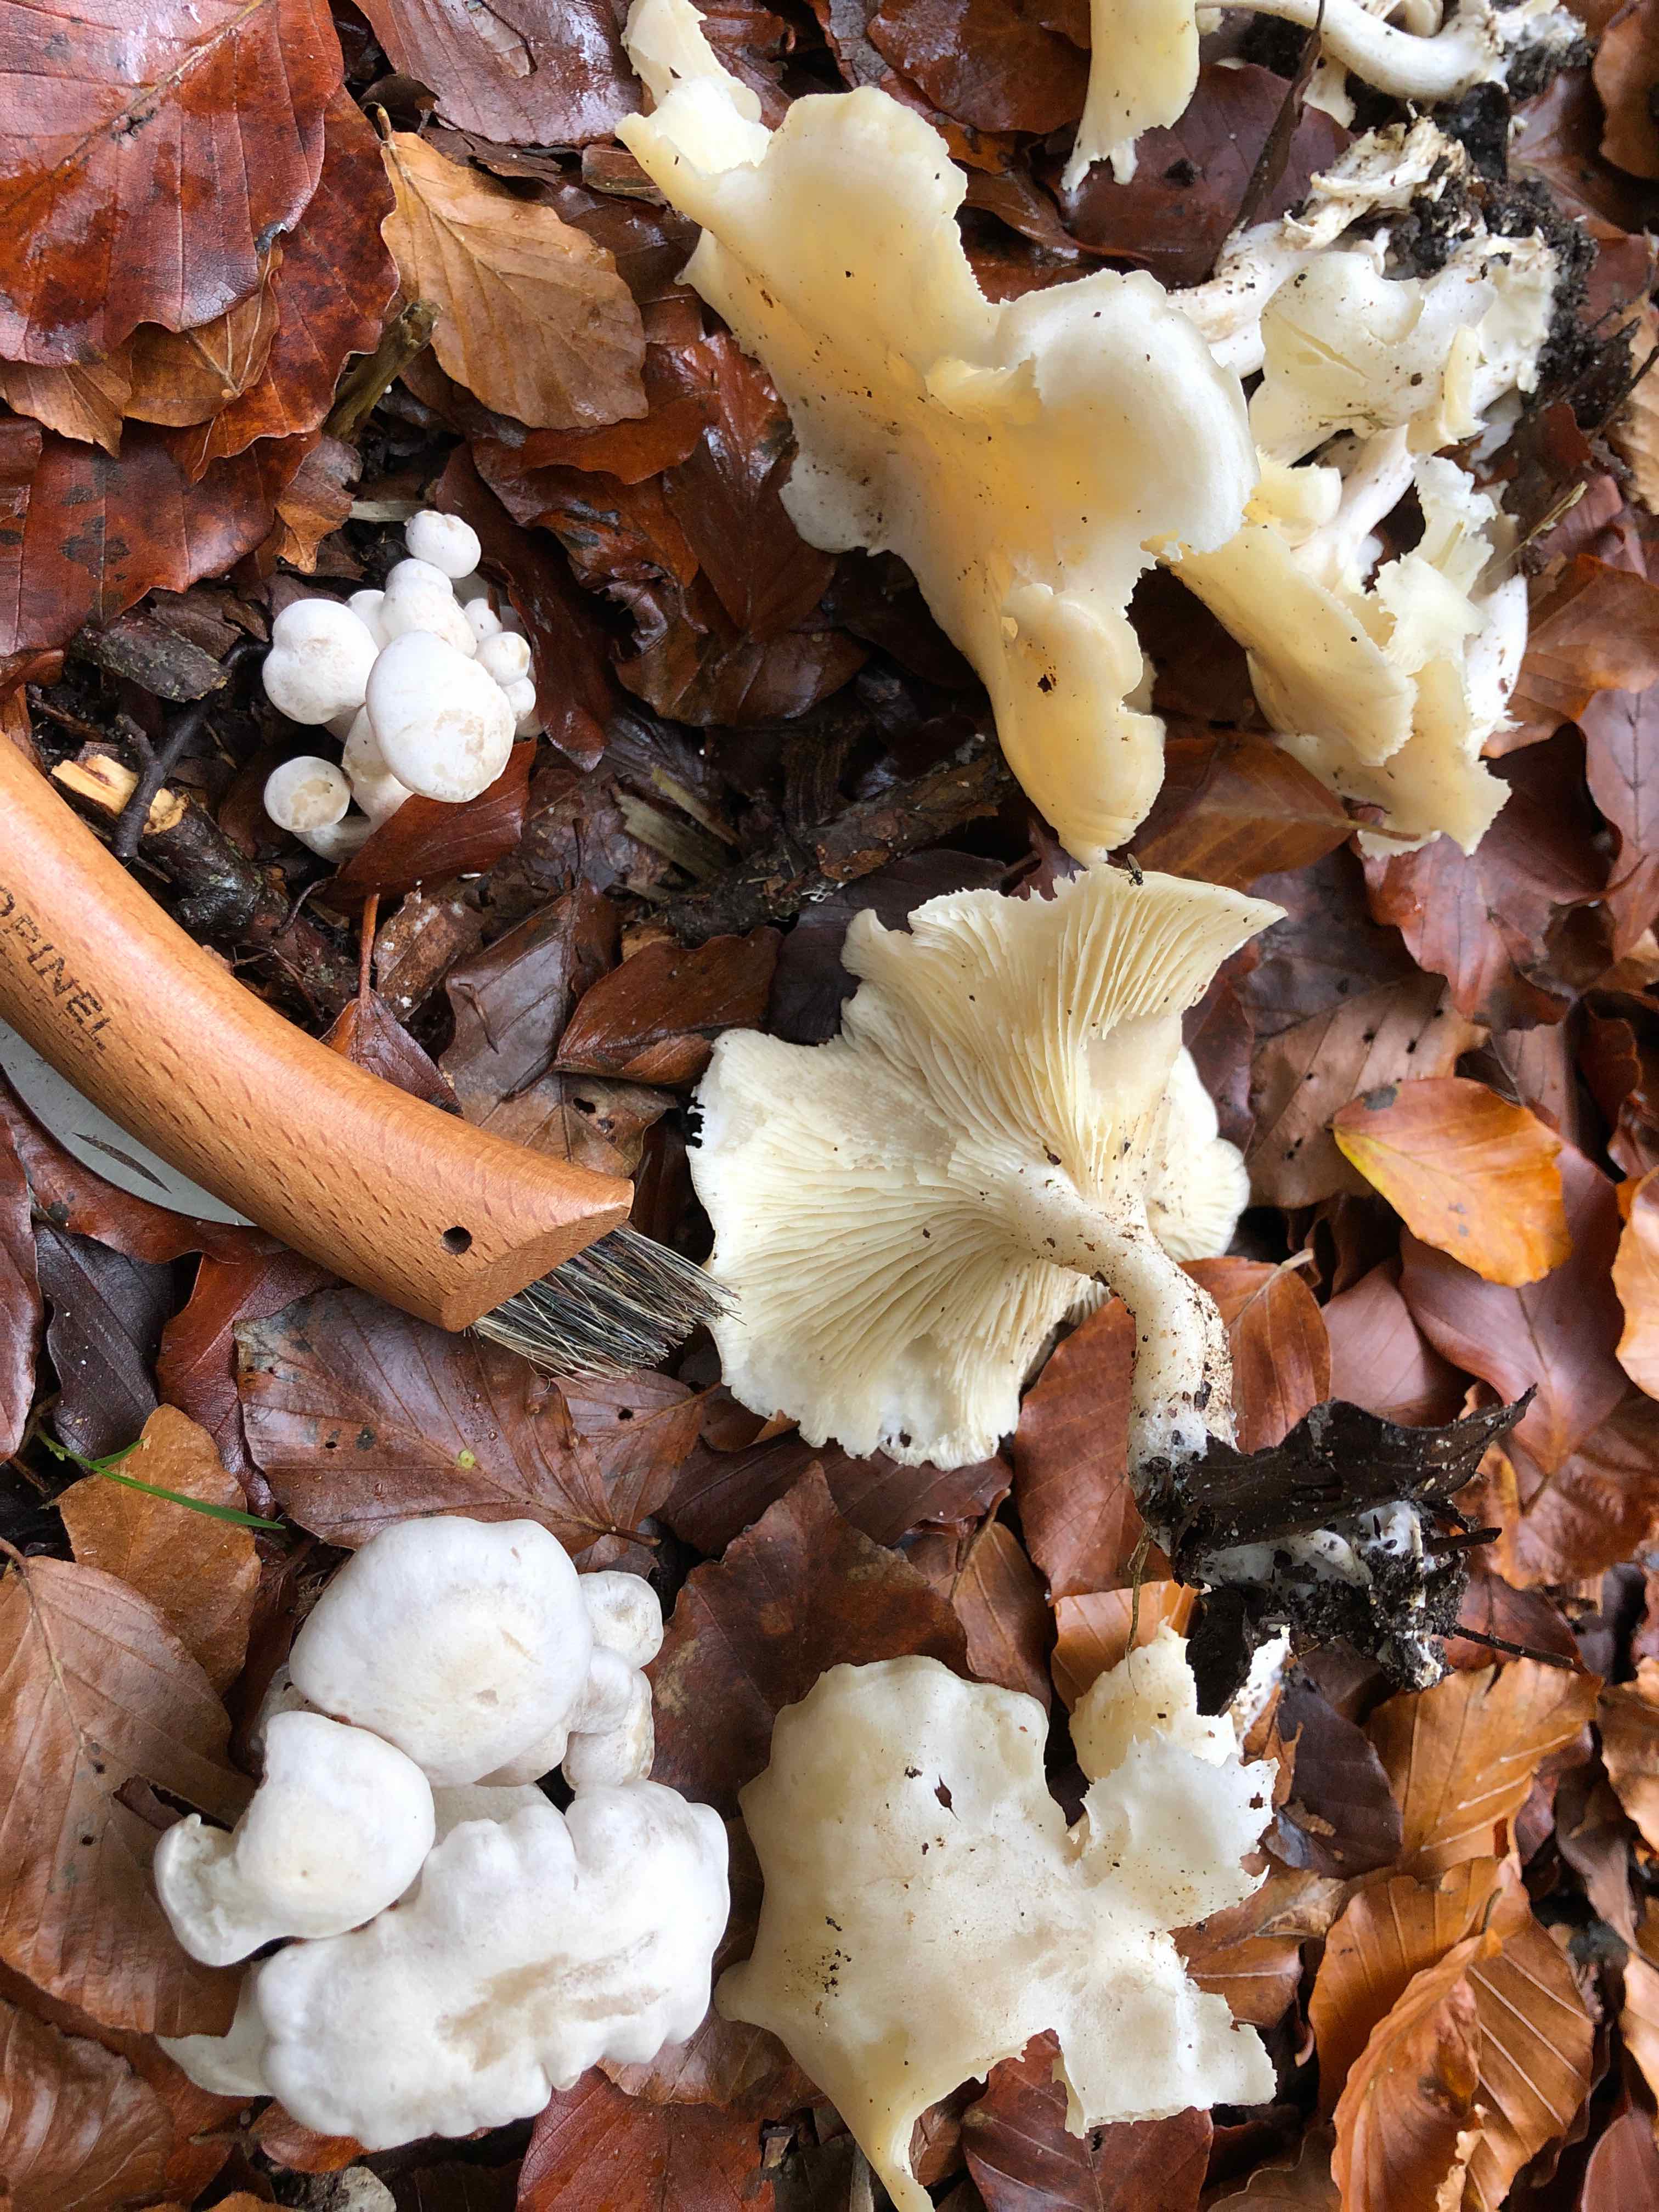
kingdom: Fungi
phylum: Basidiomycota
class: Agaricomycetes
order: Agaricales
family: Tricholomataceae
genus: Leucocybe
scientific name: Leucocybe connata
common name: knippe-tragthat
